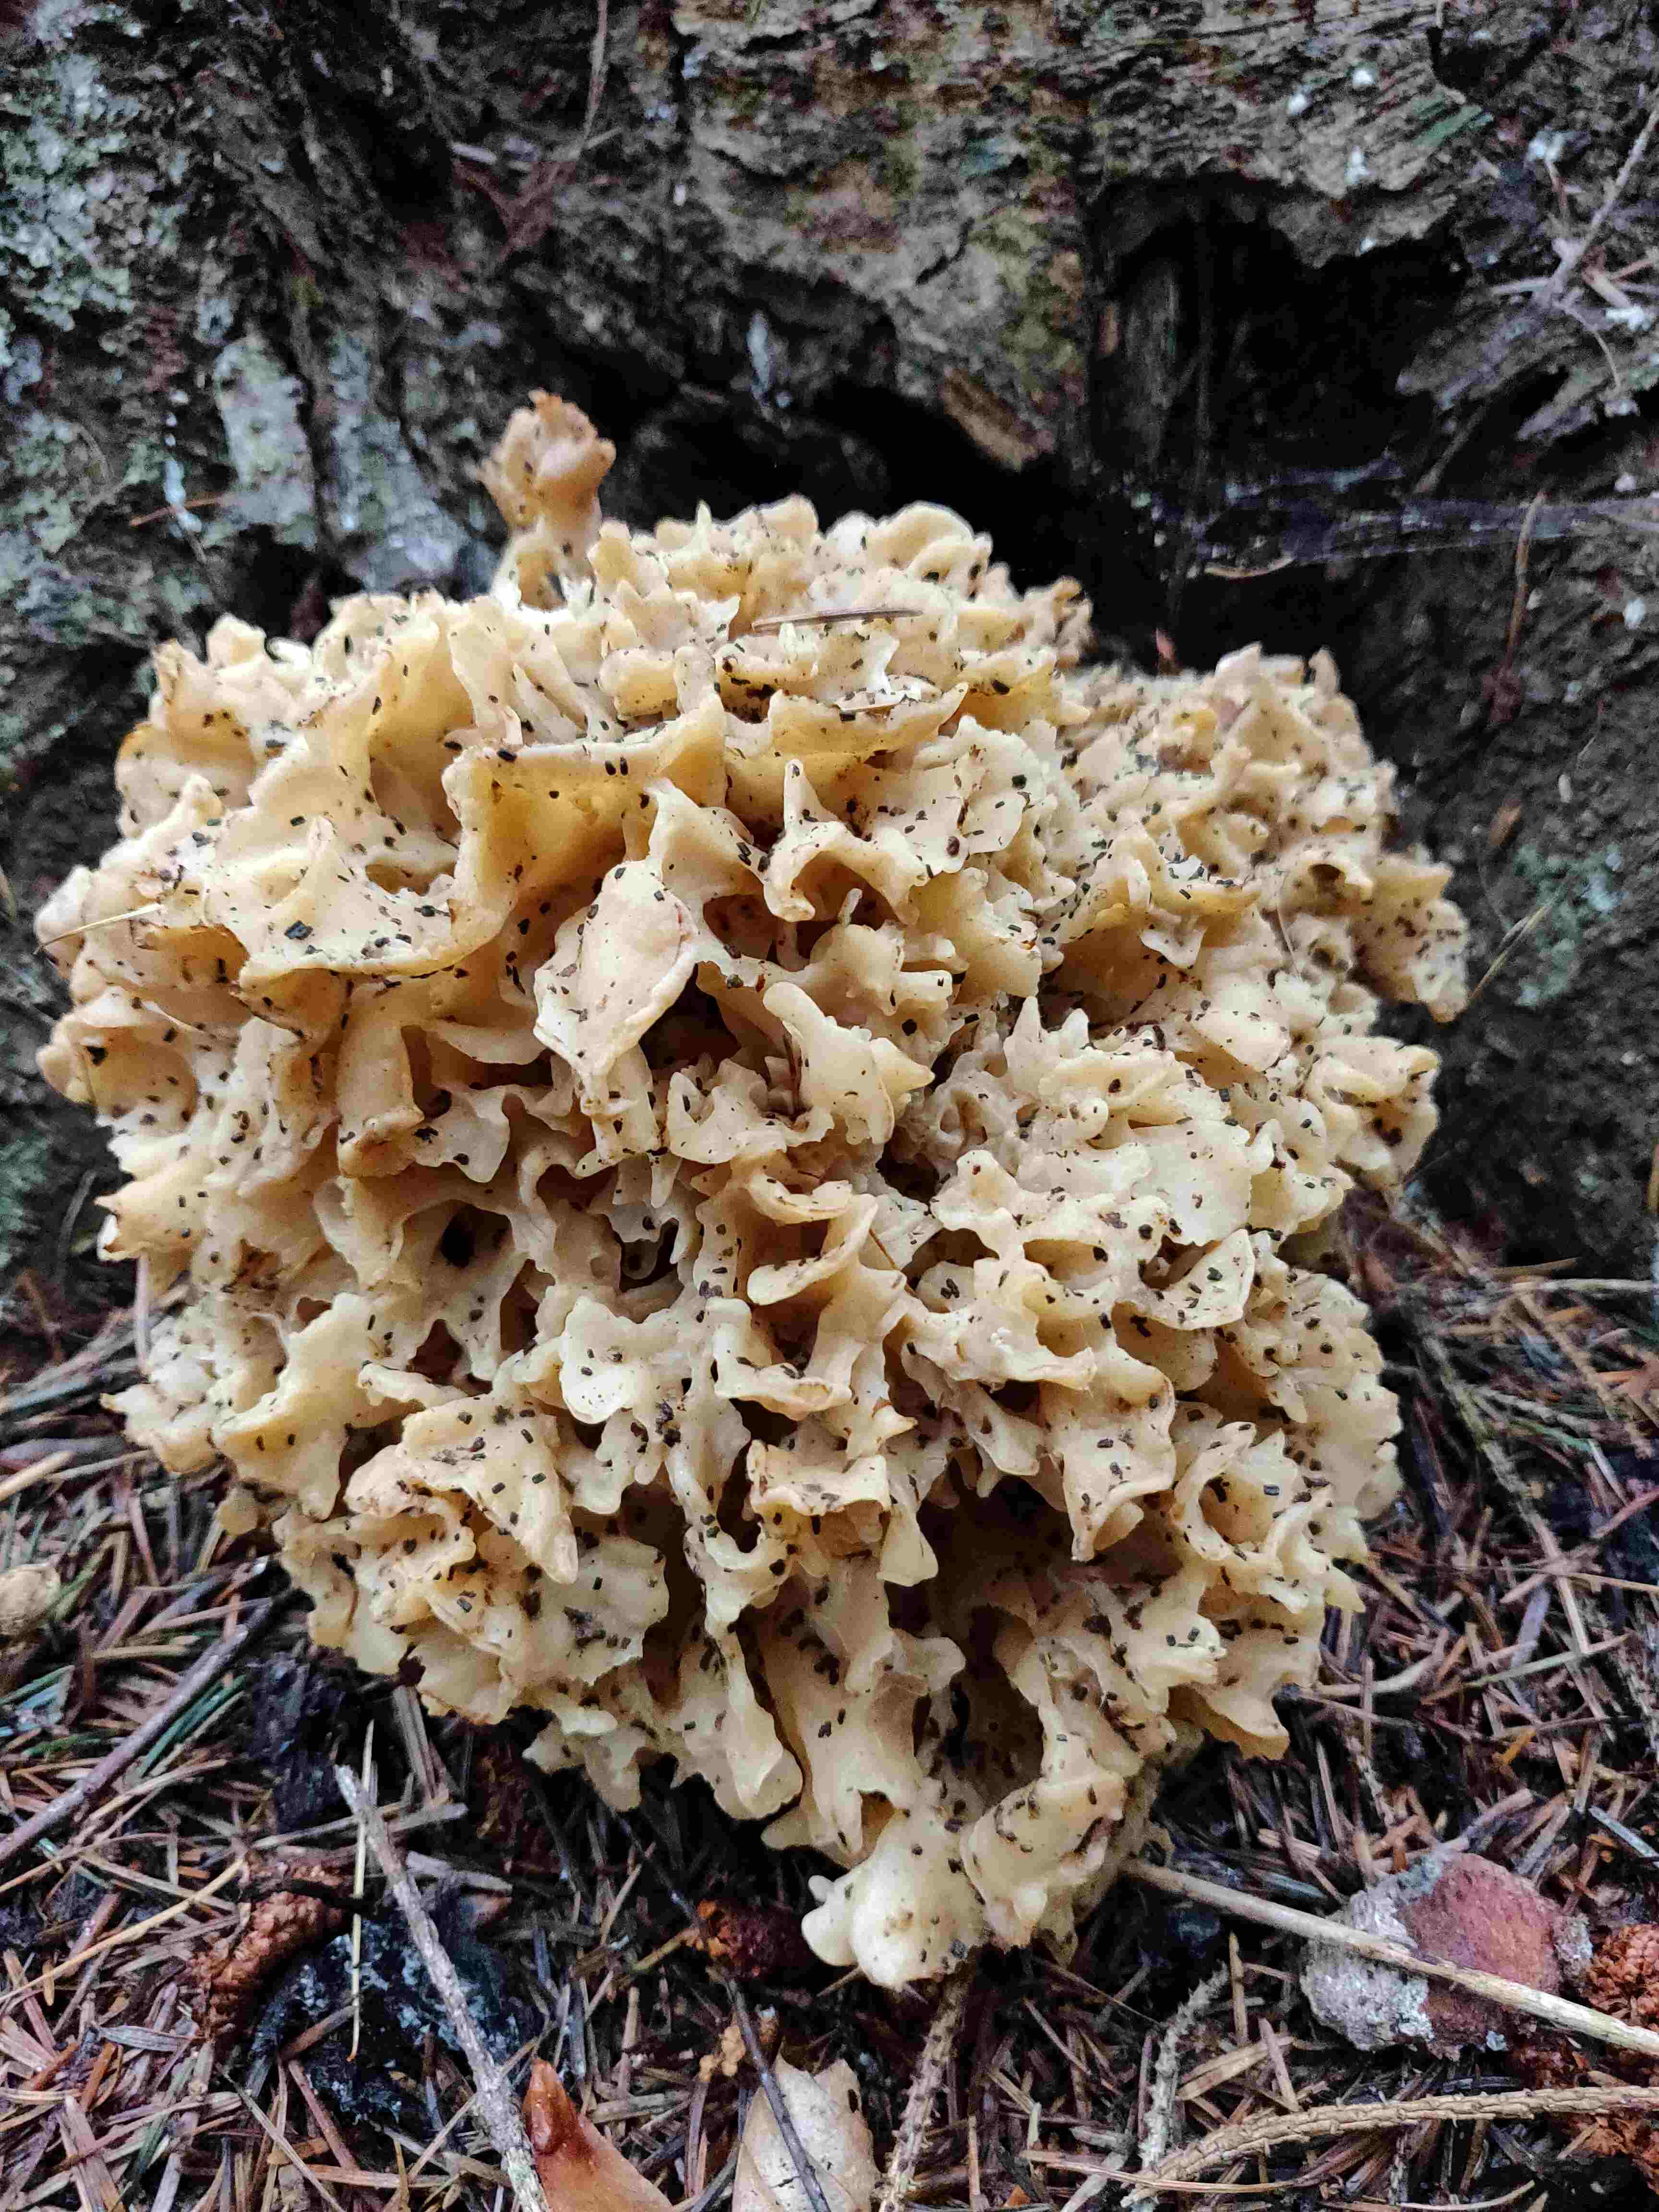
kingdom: Fungi
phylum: Basidiomycota
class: Agaricomycetes
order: Polyporales
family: Sparassidaceae
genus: Sparassis
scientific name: Sparassis crispa
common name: kruset blomkålssvamp
